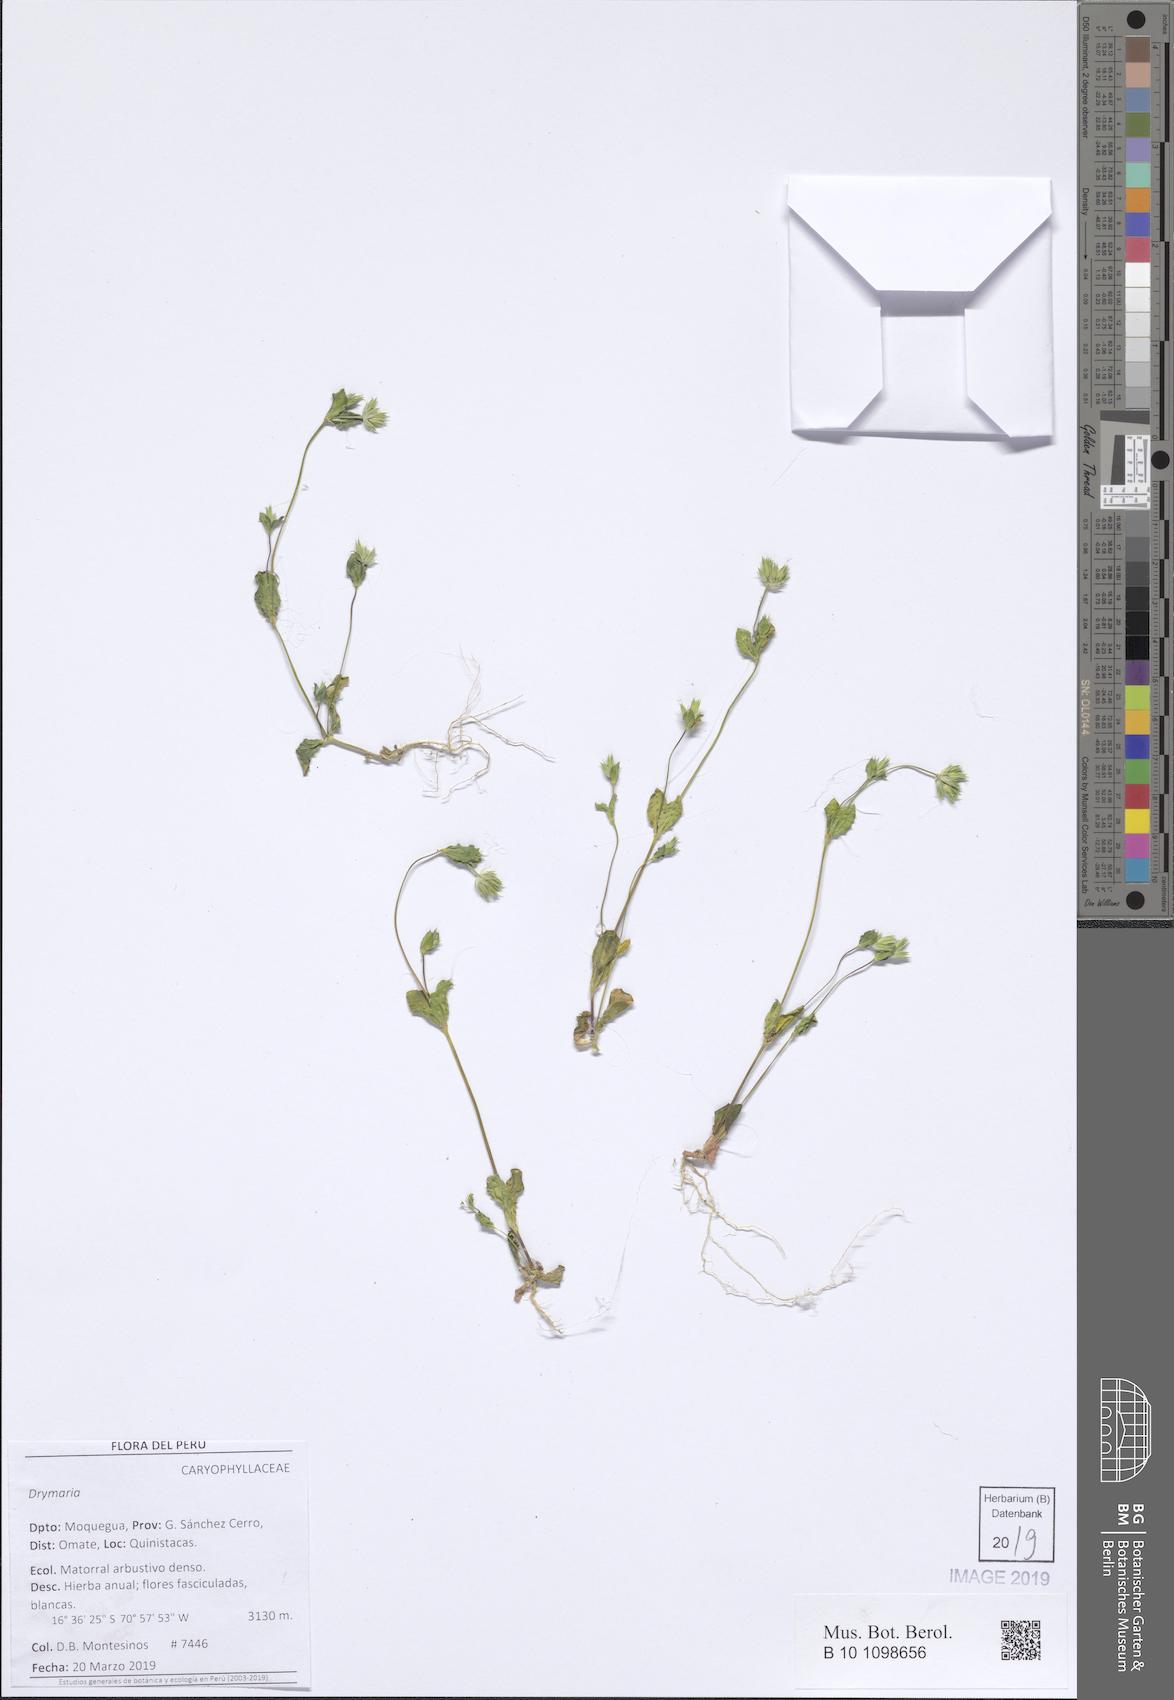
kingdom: Plantae
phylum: Tracheophyta
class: Magnoliopsida
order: Caryophyllales
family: Caryophyllaceae
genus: Drymaria
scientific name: Drymaria
